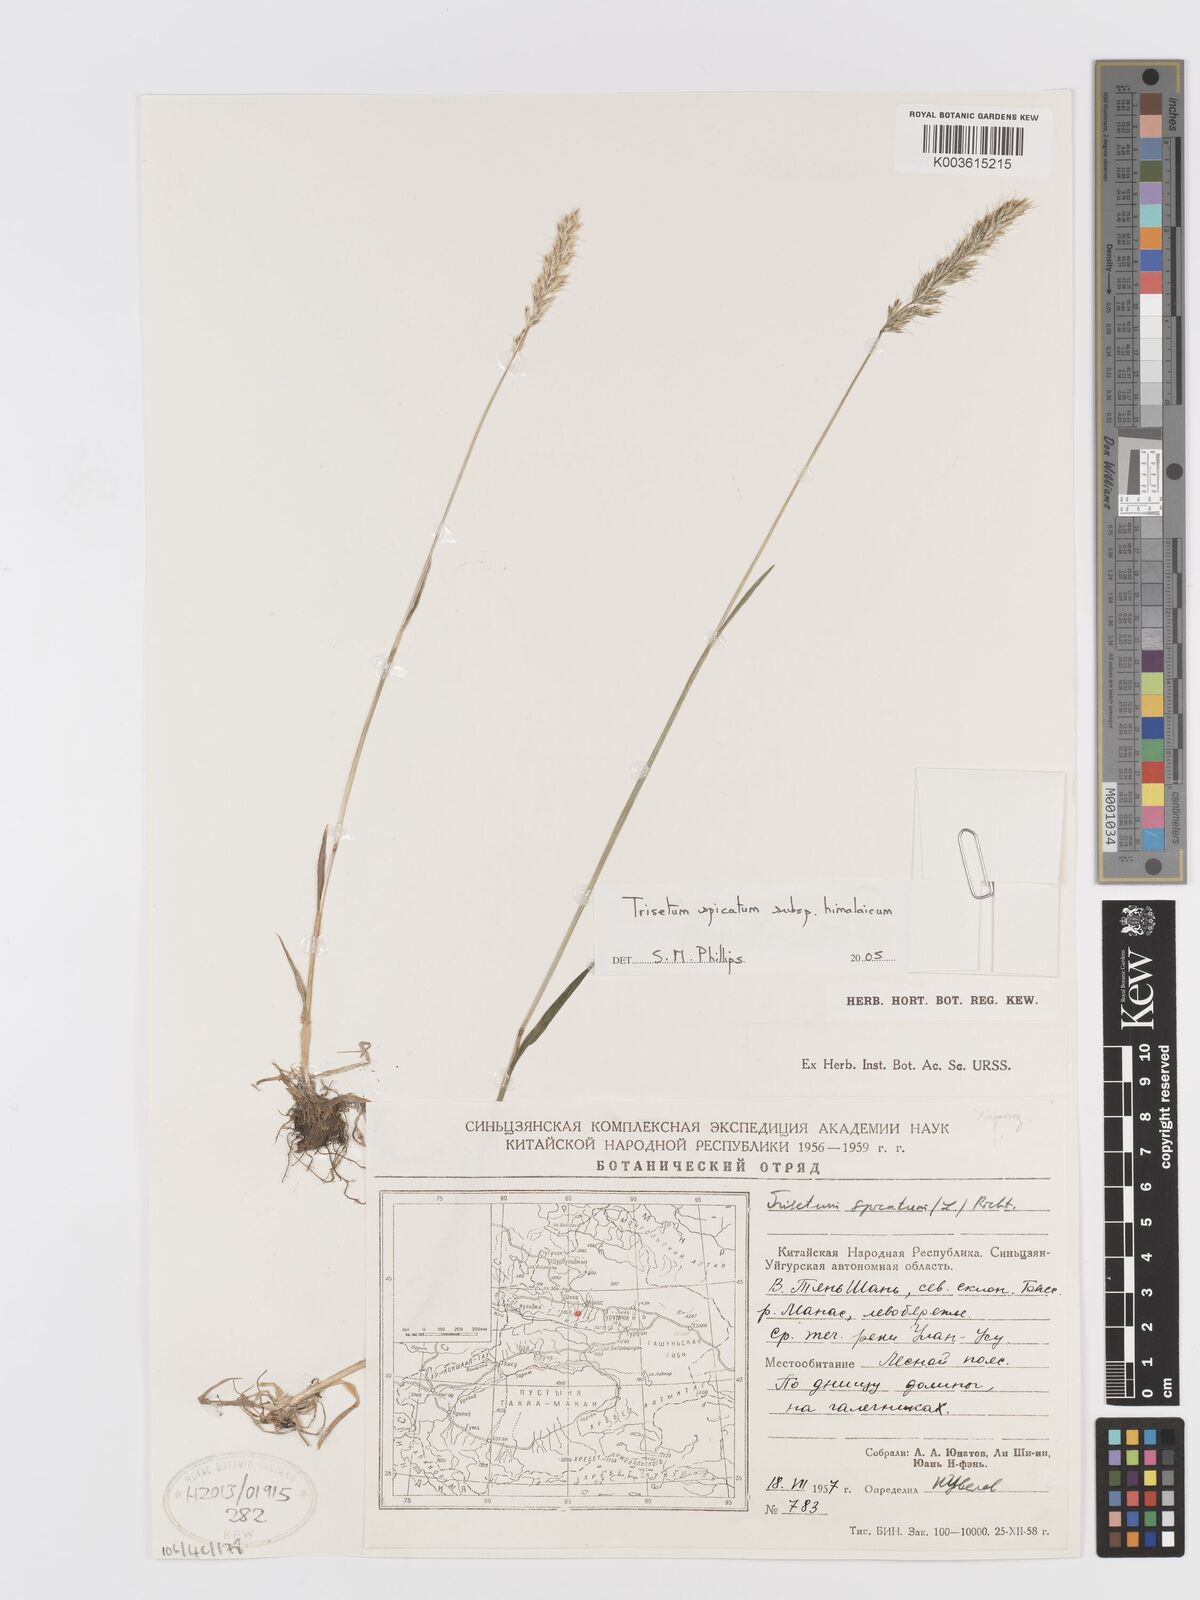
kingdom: Plantae
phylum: Tracheophyta
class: Liliopsida
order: Poales
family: Poaceae
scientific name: Poaceae
